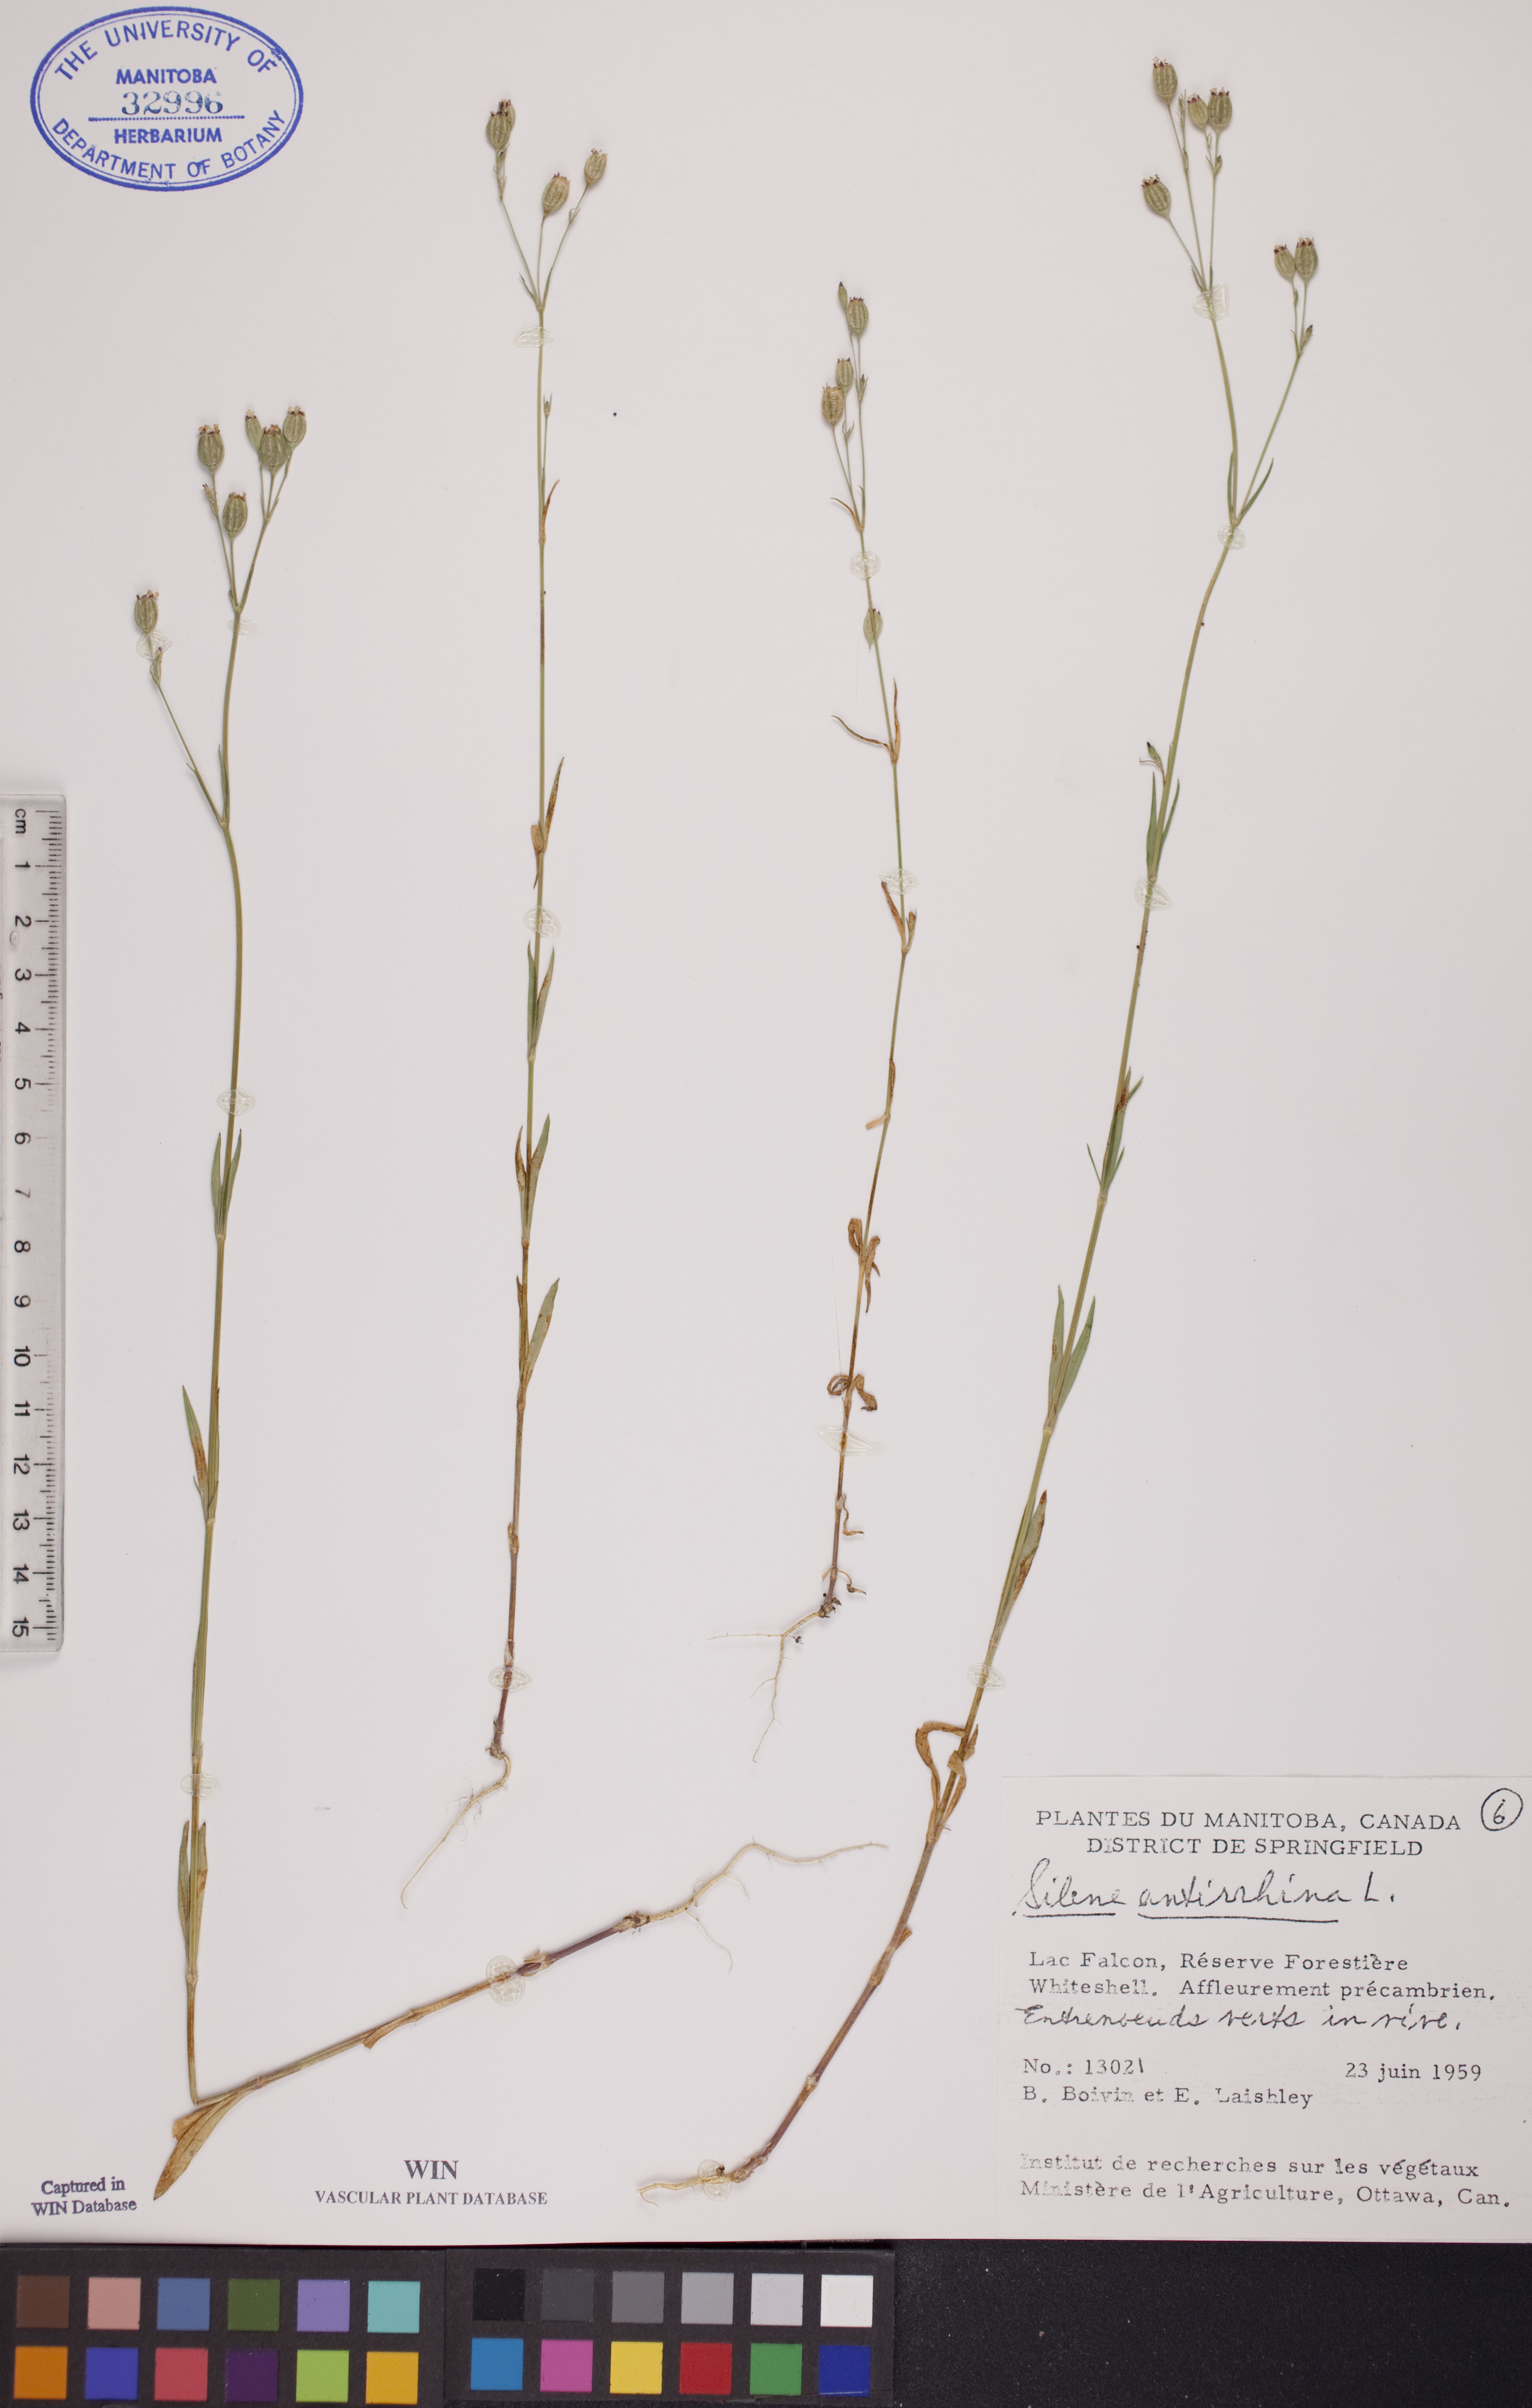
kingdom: Plantae
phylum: Tracheophyta
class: Magnoliopsida
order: Caryophyllales
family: Caryophyllaceae
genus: Silene
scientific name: Silene antirrhina
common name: Sleepy catchfly
